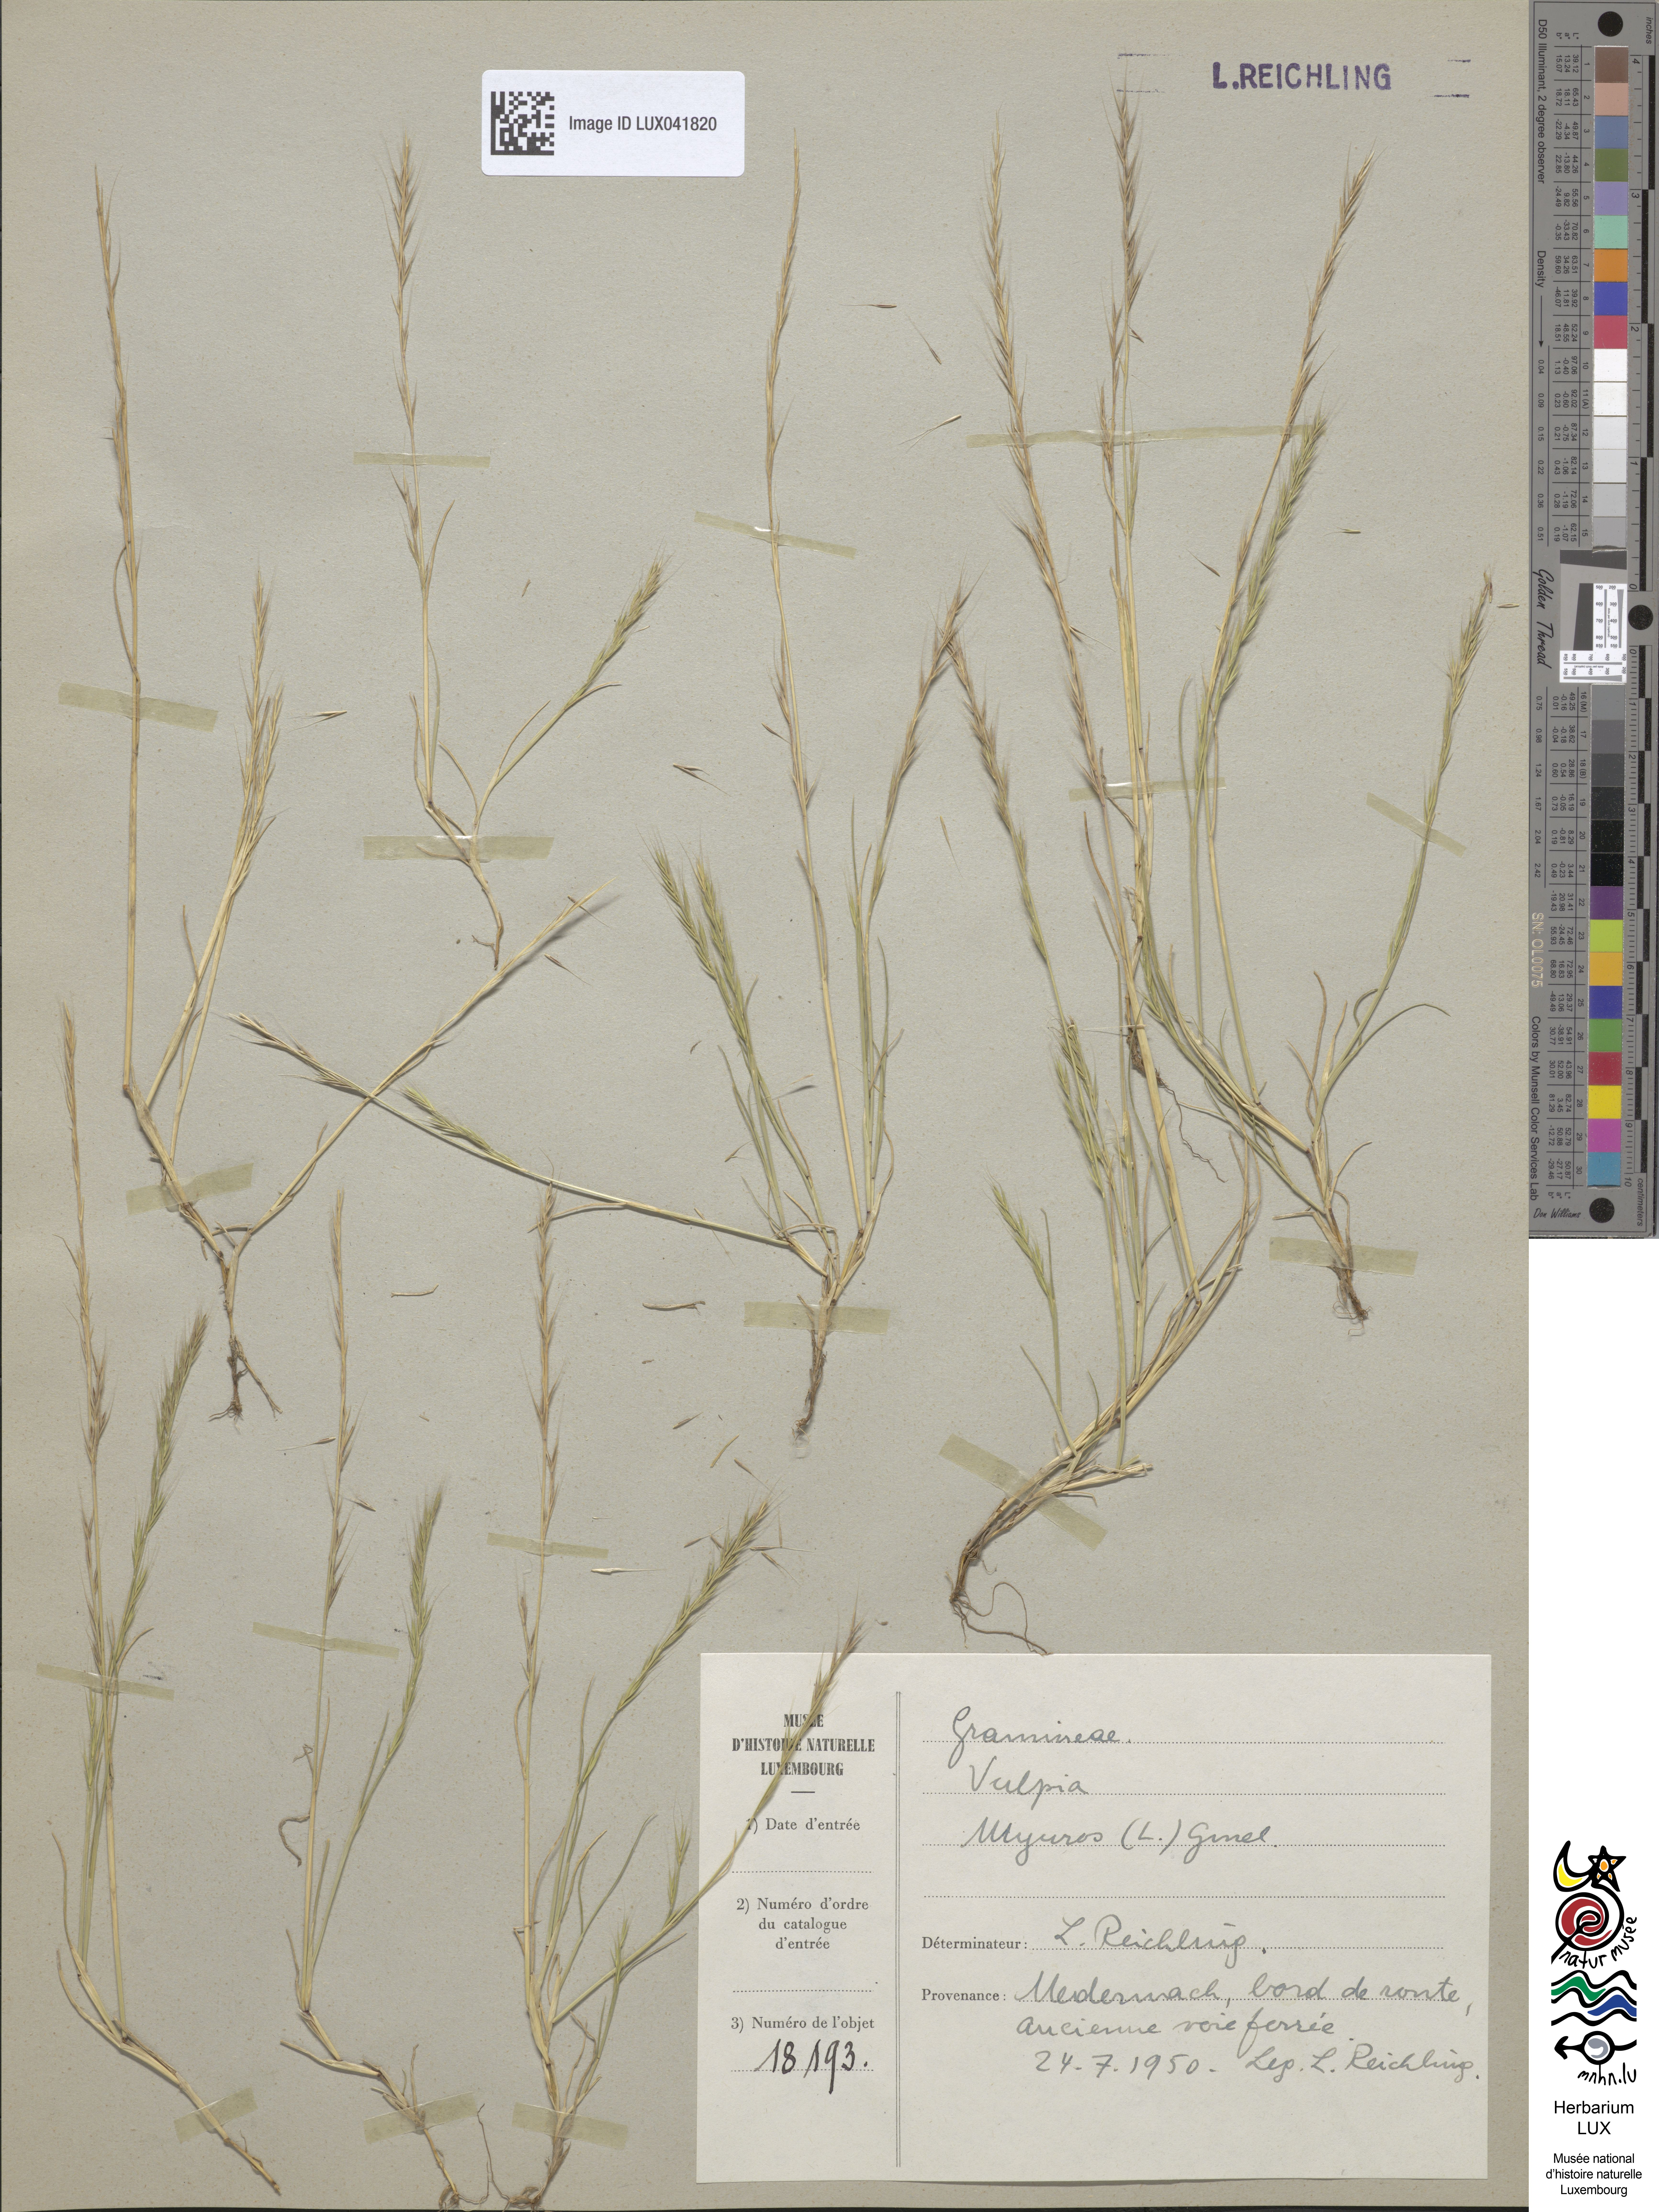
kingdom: Plantae
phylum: Tracheophyta
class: Liliopsida
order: Poales
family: Poaceae
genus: Festuca
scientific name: Festuca myuros
